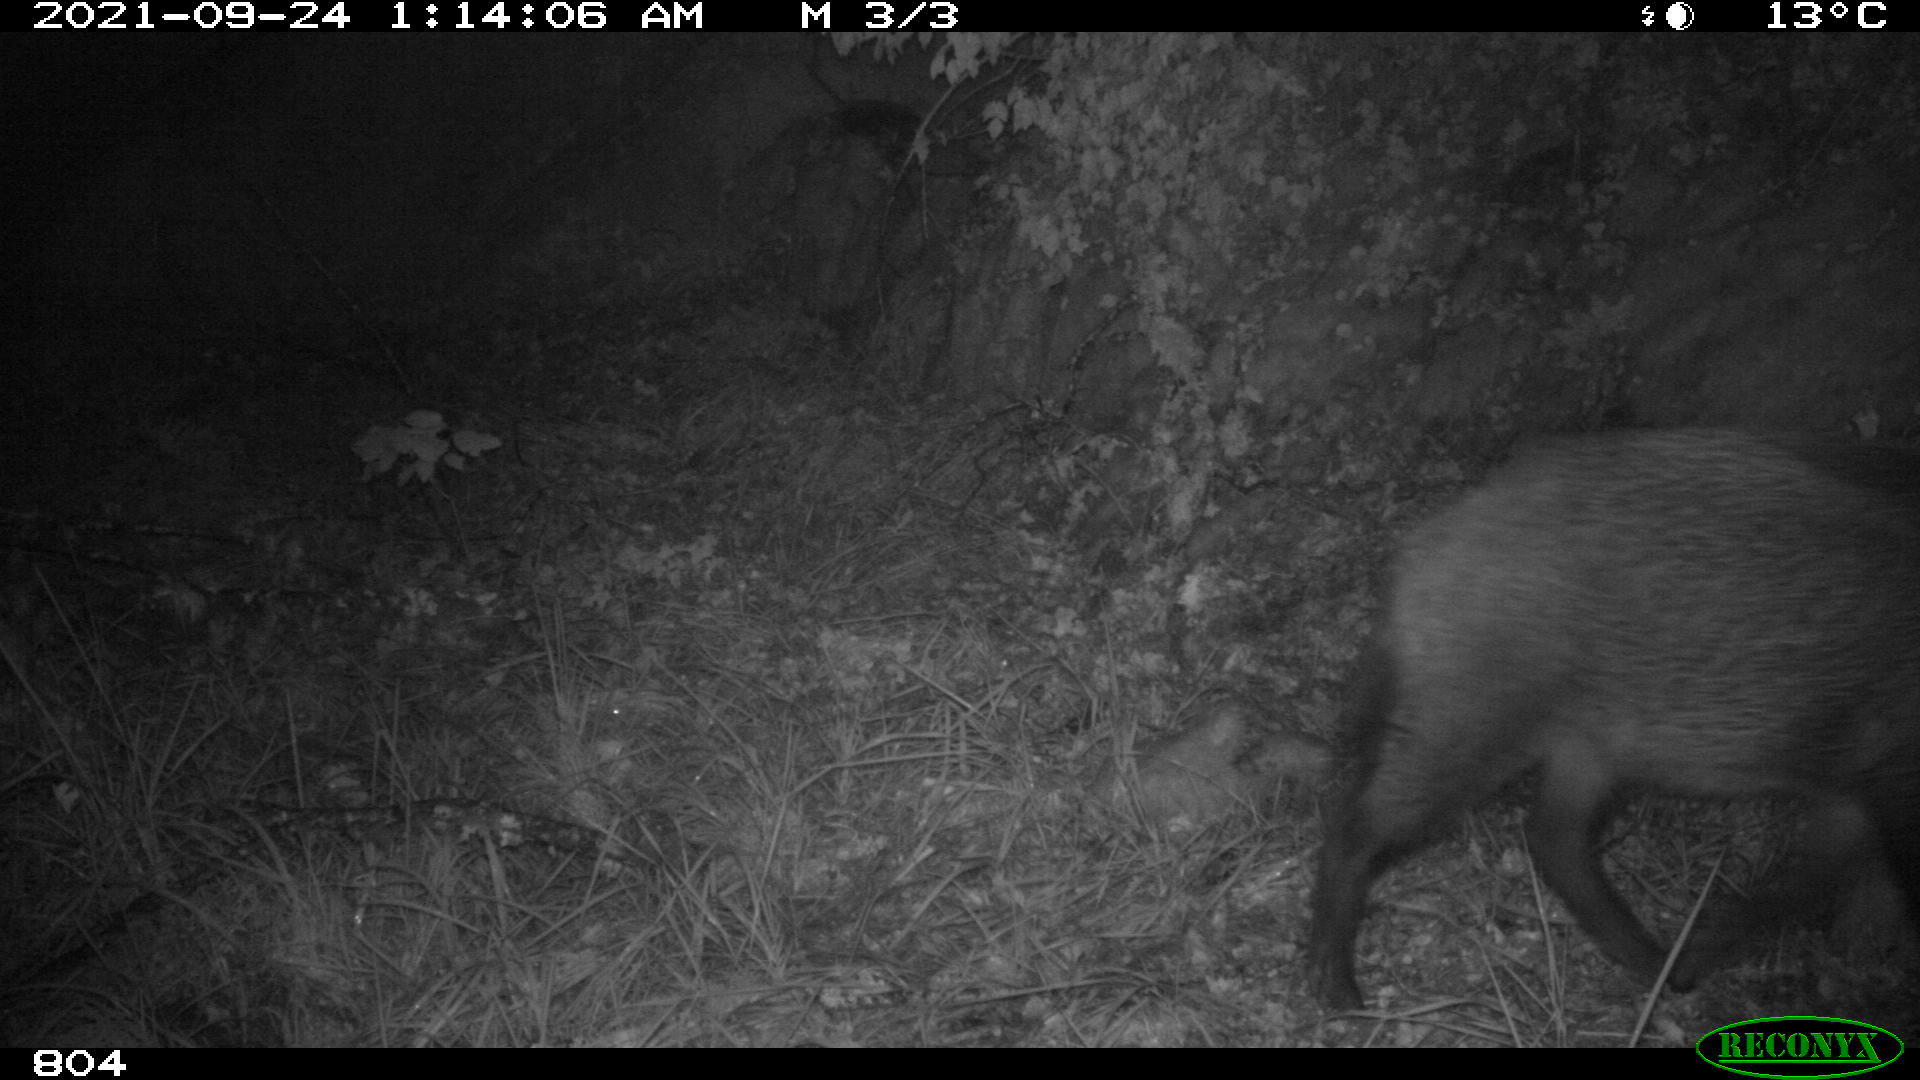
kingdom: Animalia
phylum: Chordata
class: Mammalia
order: Artiodactyla
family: Suidae
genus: Sus
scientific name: Sus scrofa
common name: Wild boar
